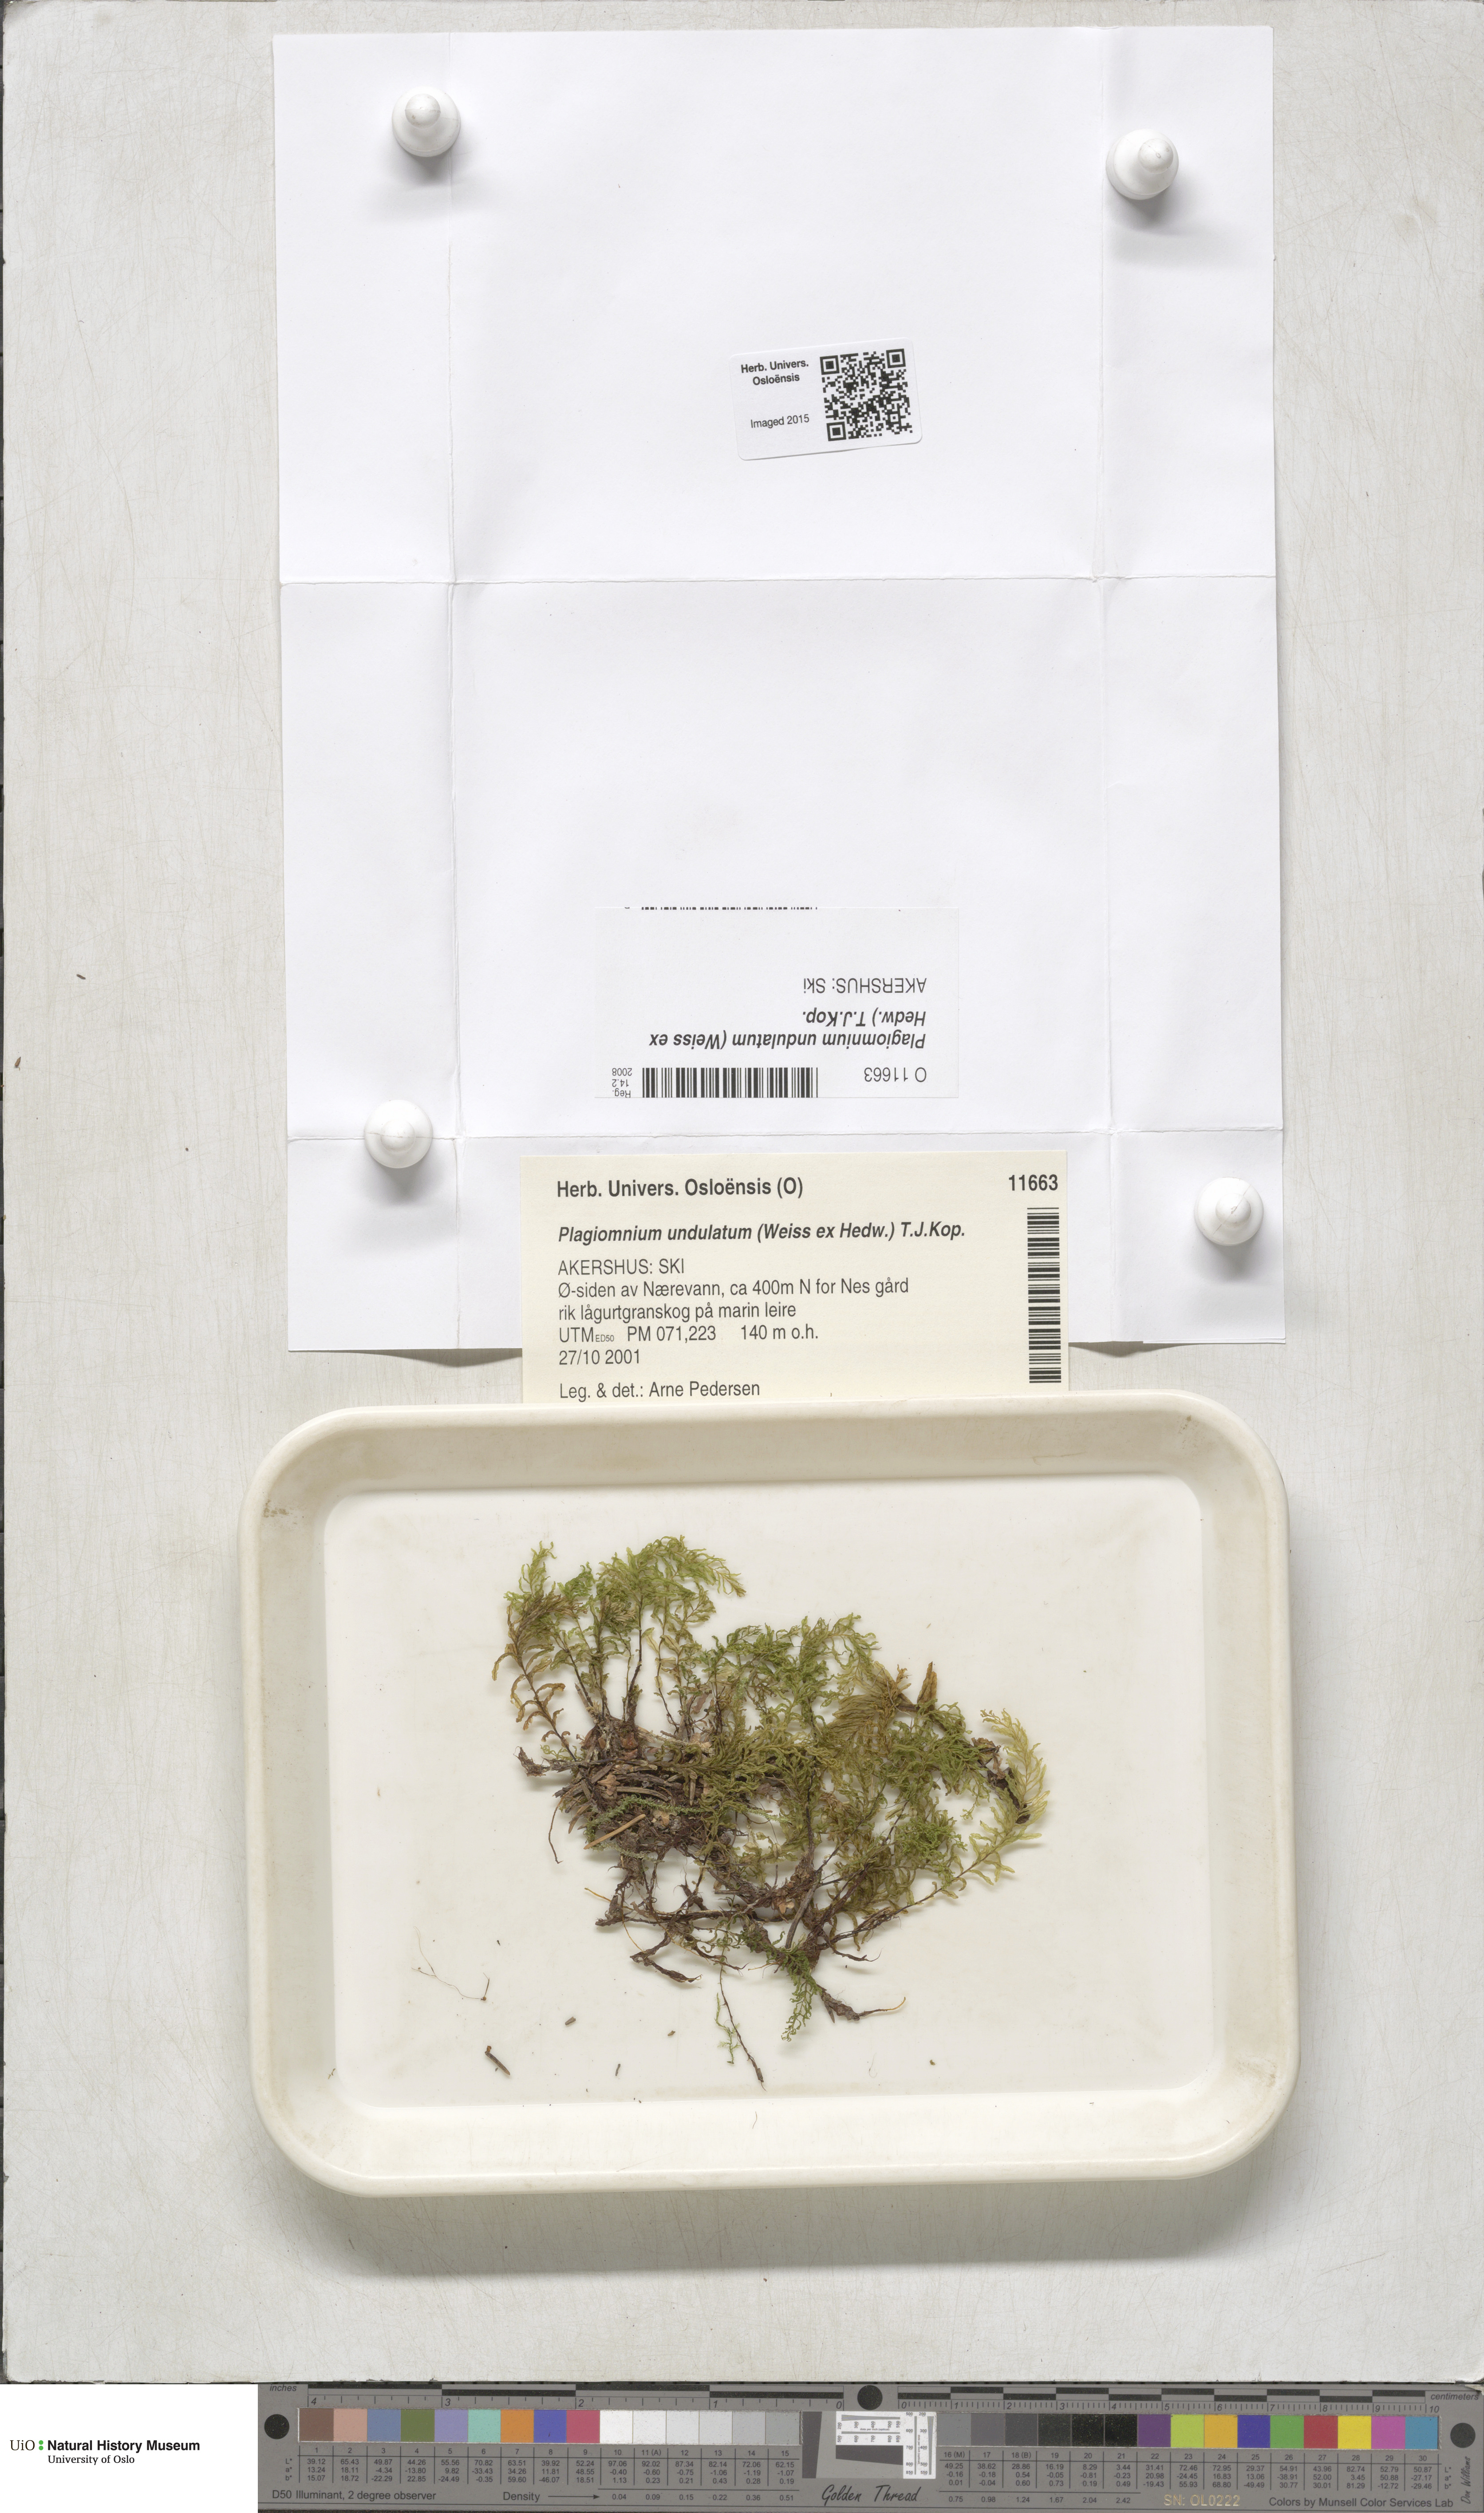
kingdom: Plantae
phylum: Bryophyta
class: Bryopsida
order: Bryales
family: Mniaceae
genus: Plagiomnium
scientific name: Plagiomnium undulatum
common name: Hart's-tongue thyme-moss
